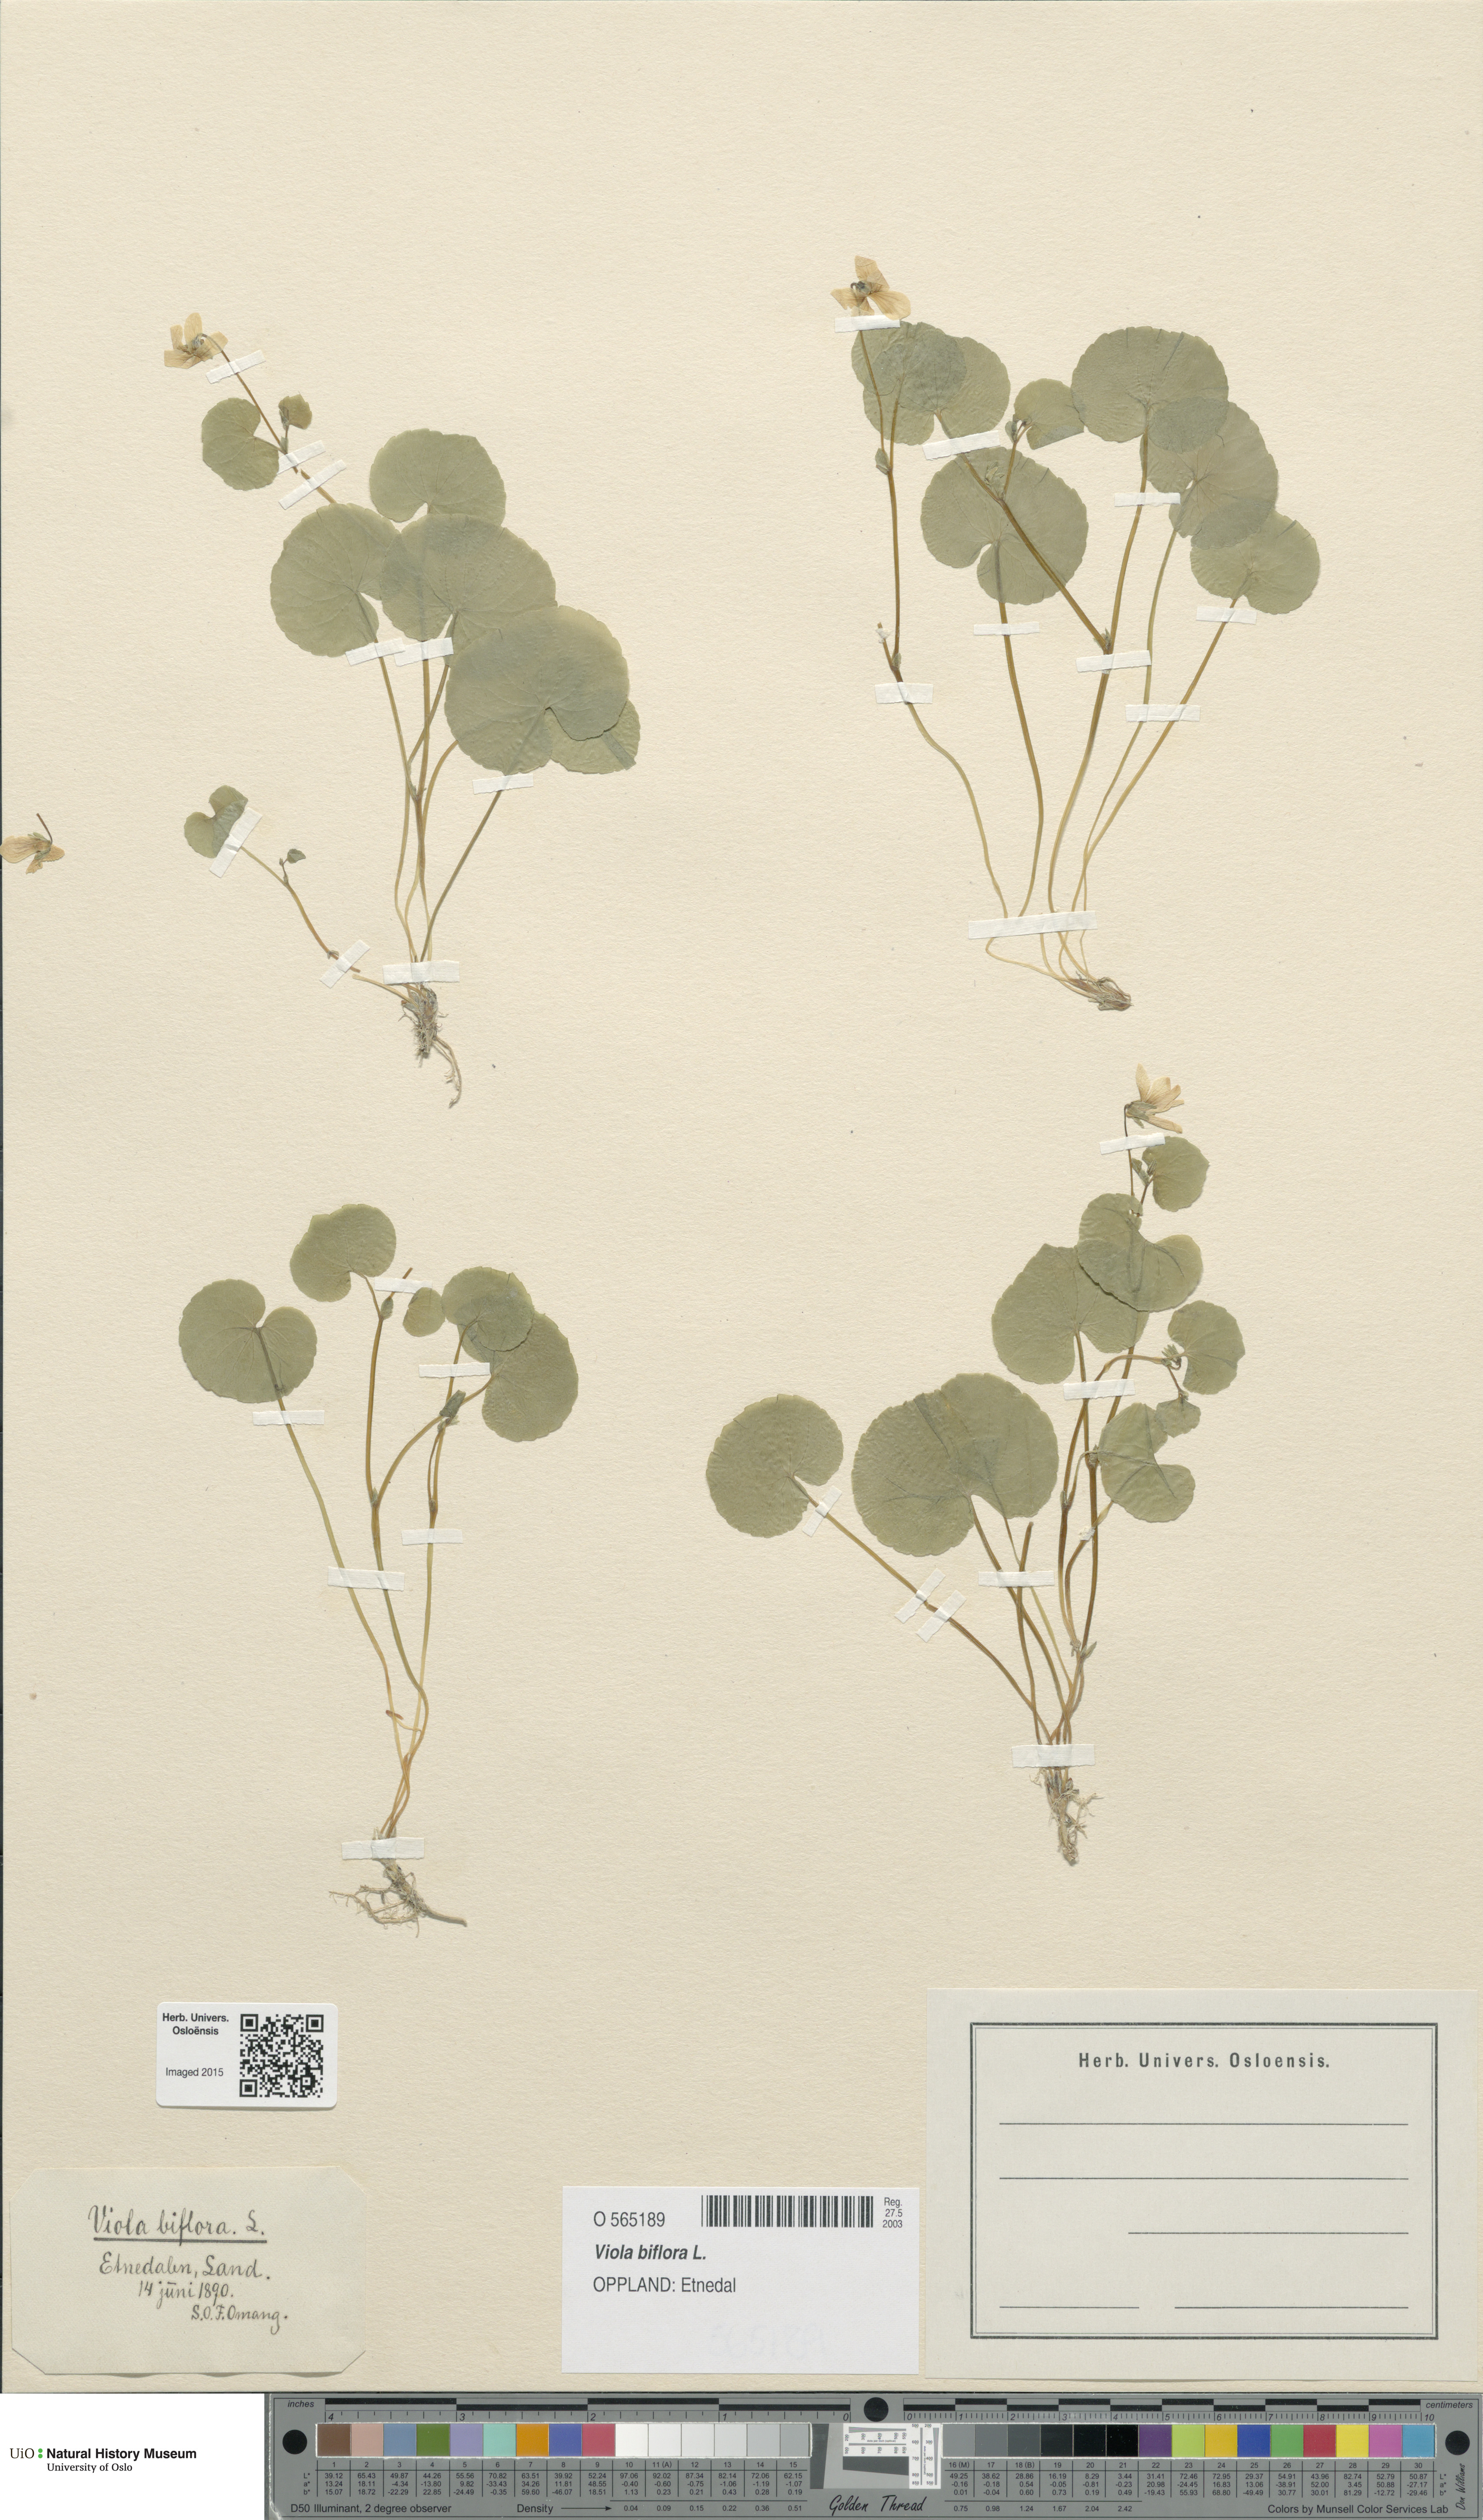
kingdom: Plantae
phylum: Tracheophyta
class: Magnoliopsida
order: Malpighiales
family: Violaceae
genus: Viola
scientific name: Viola biflora
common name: Alpine yellow violet
